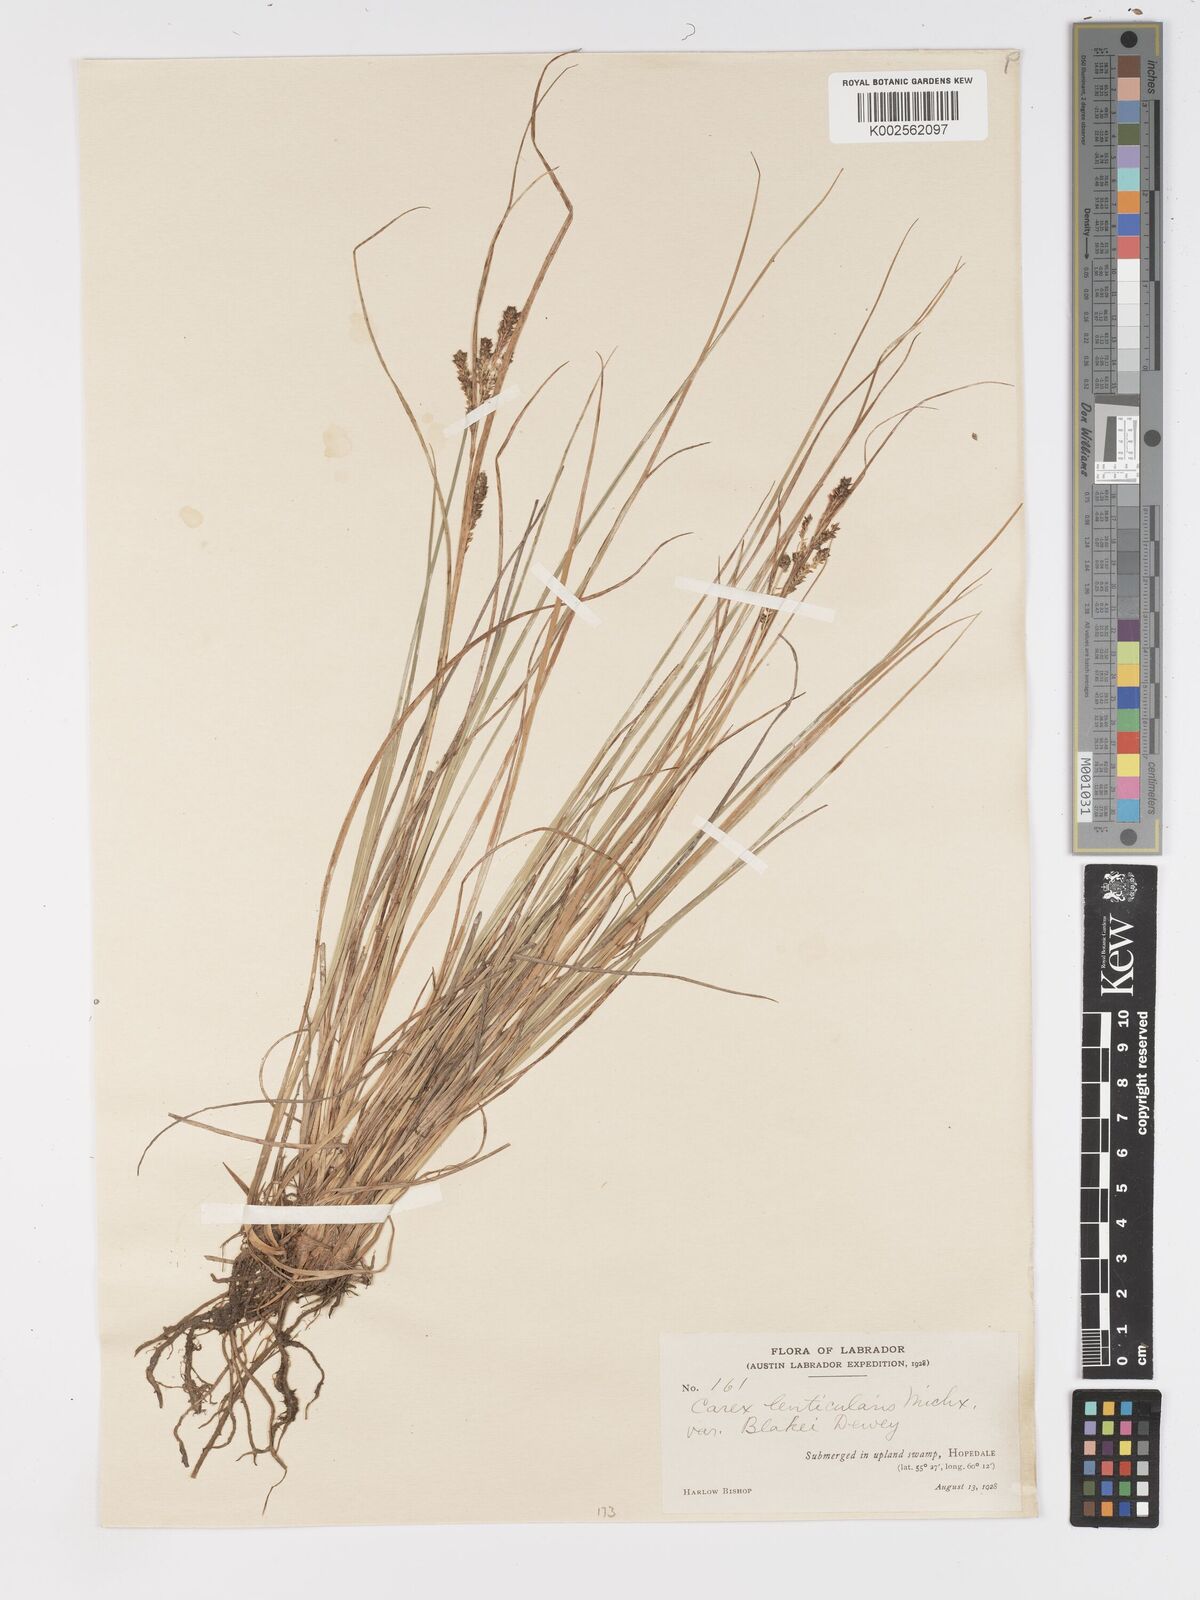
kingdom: Plantae
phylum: Tracheophyta
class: Liliopsida
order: Poales
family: Cyperaceae
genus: Carex
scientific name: Carex lenticularis
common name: Lakeshore sedge
